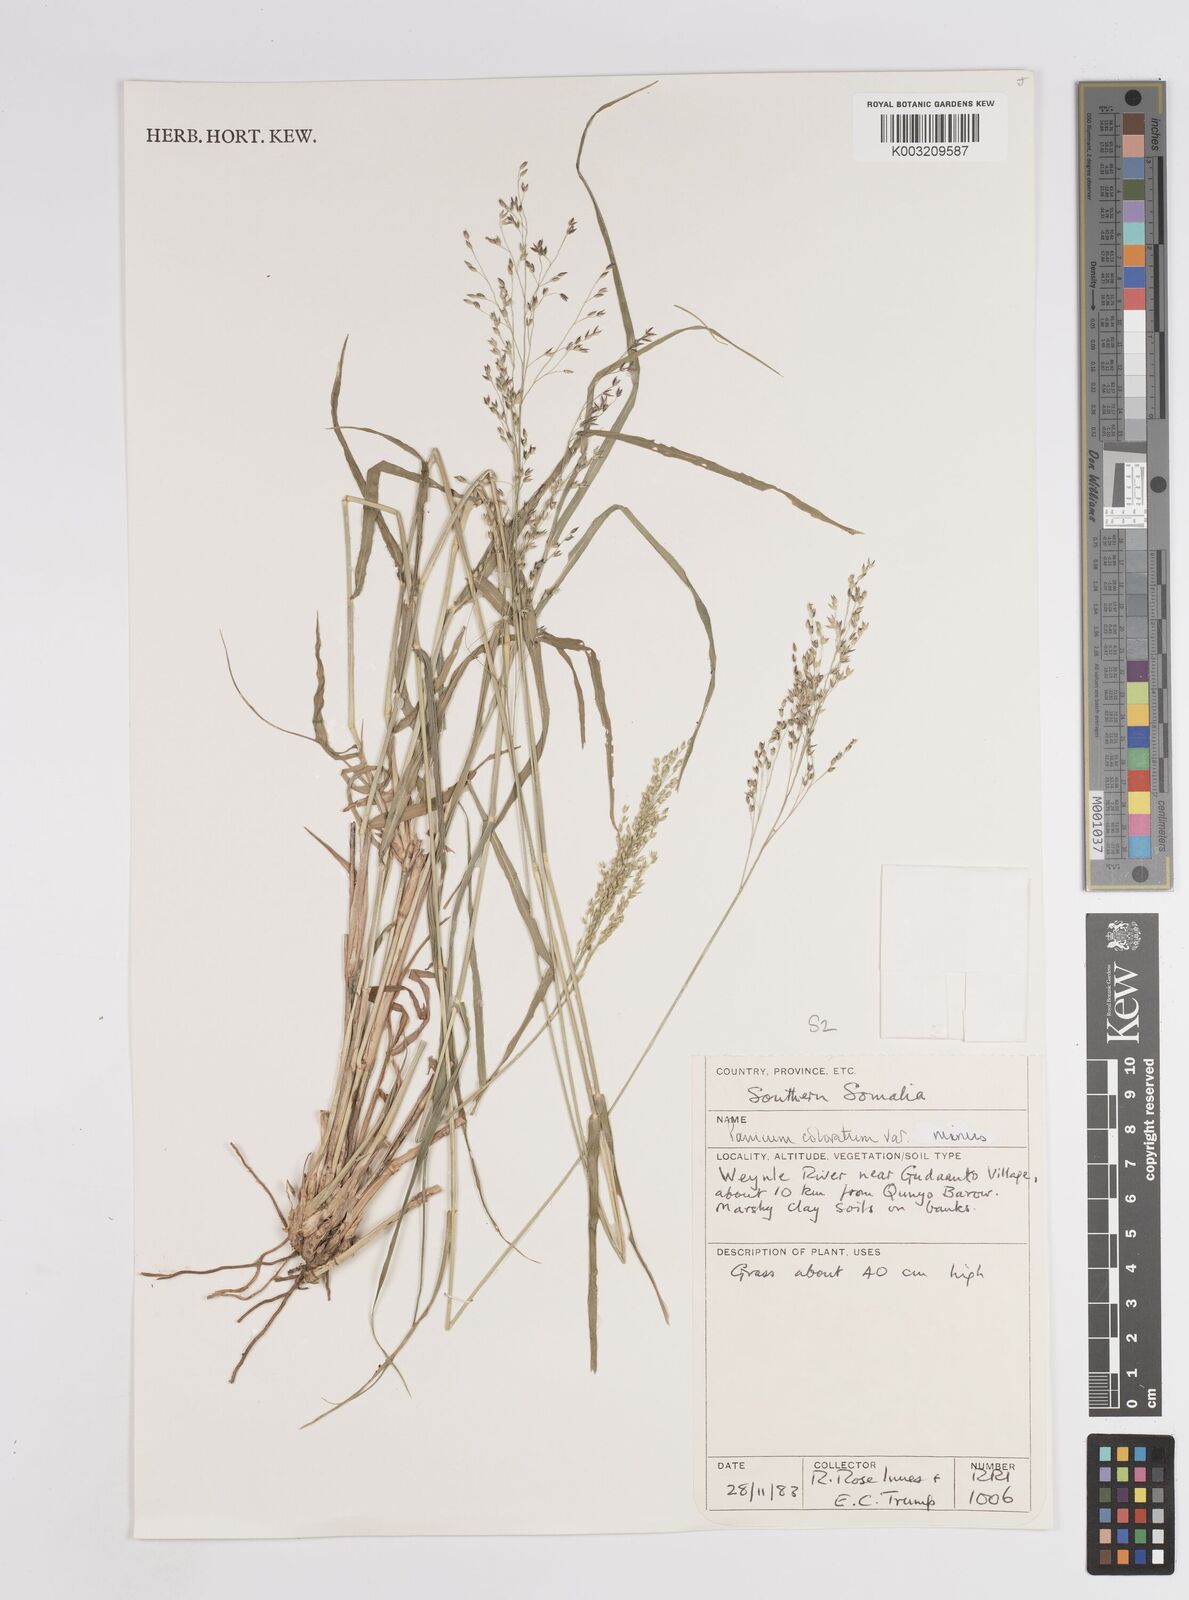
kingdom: Plantae
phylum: Tracheophyta
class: Liliopsida
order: Poales
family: Poaceae
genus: Panicum
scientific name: Panicum coloratum
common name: Kleingrass
